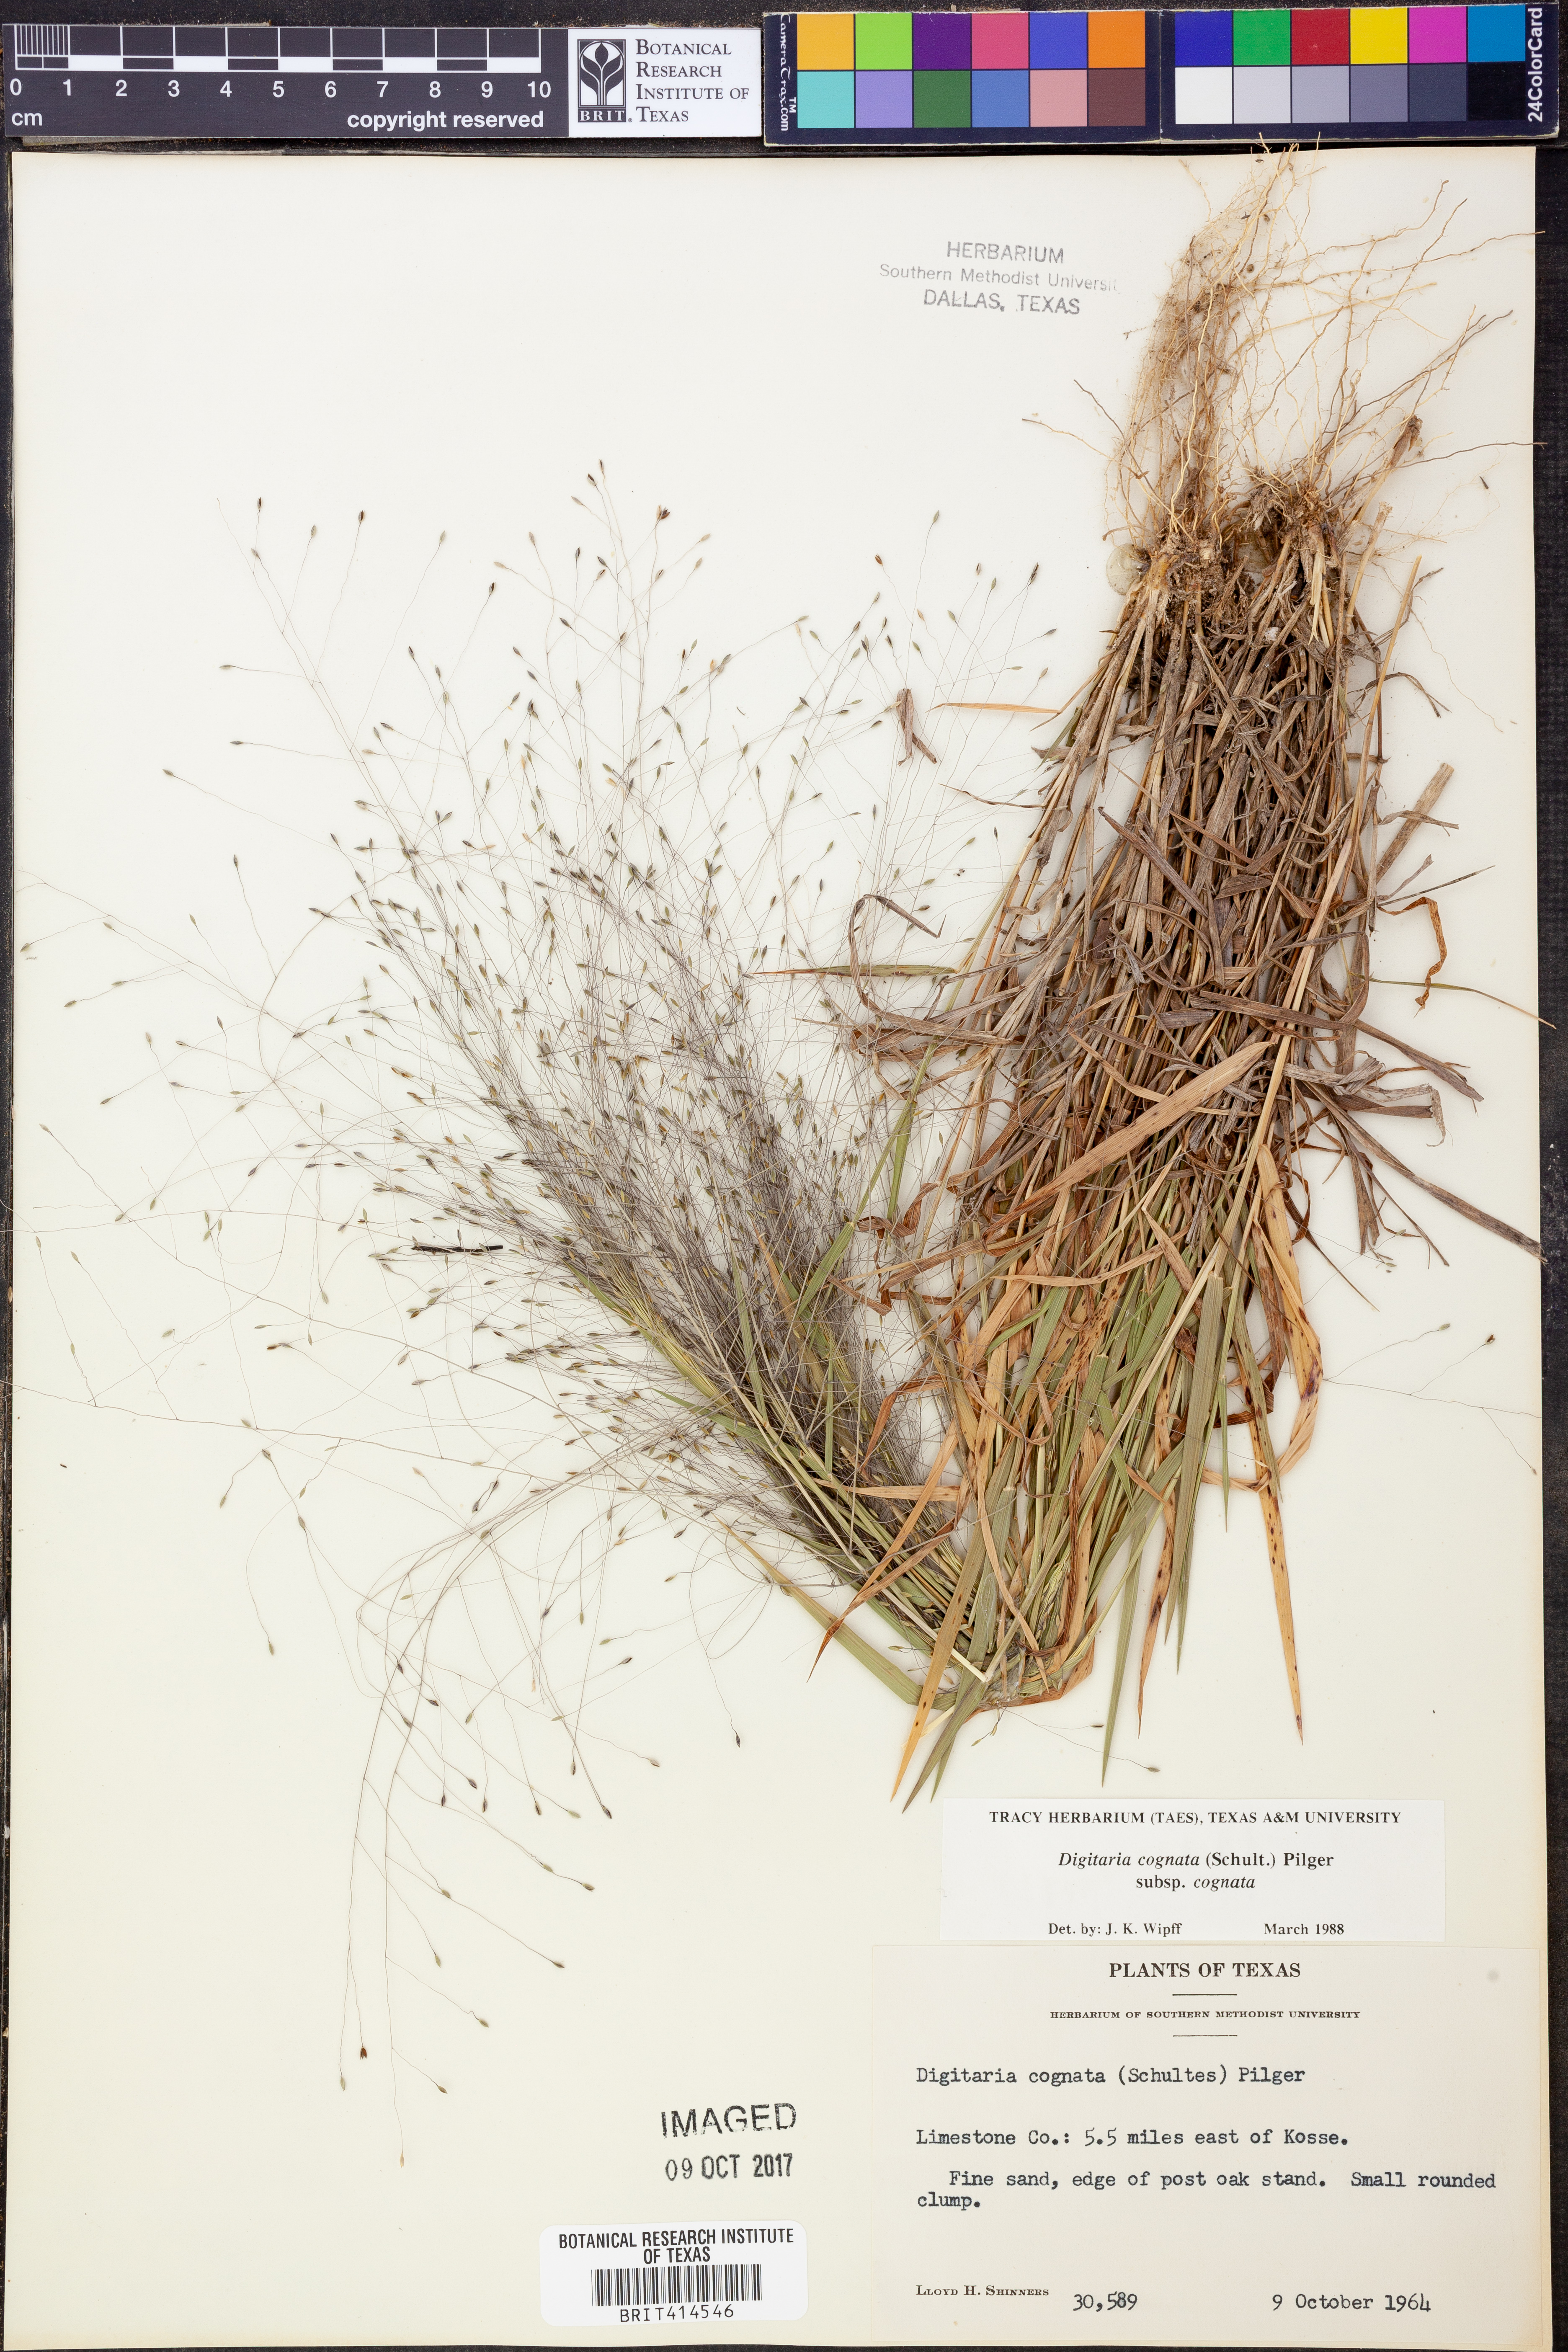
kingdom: Plantae
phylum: Tracheophyta
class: Liliopsida
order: Poales
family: Poaceae
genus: Digitaria
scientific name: Digitaria cognata
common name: Fall witchgrass
